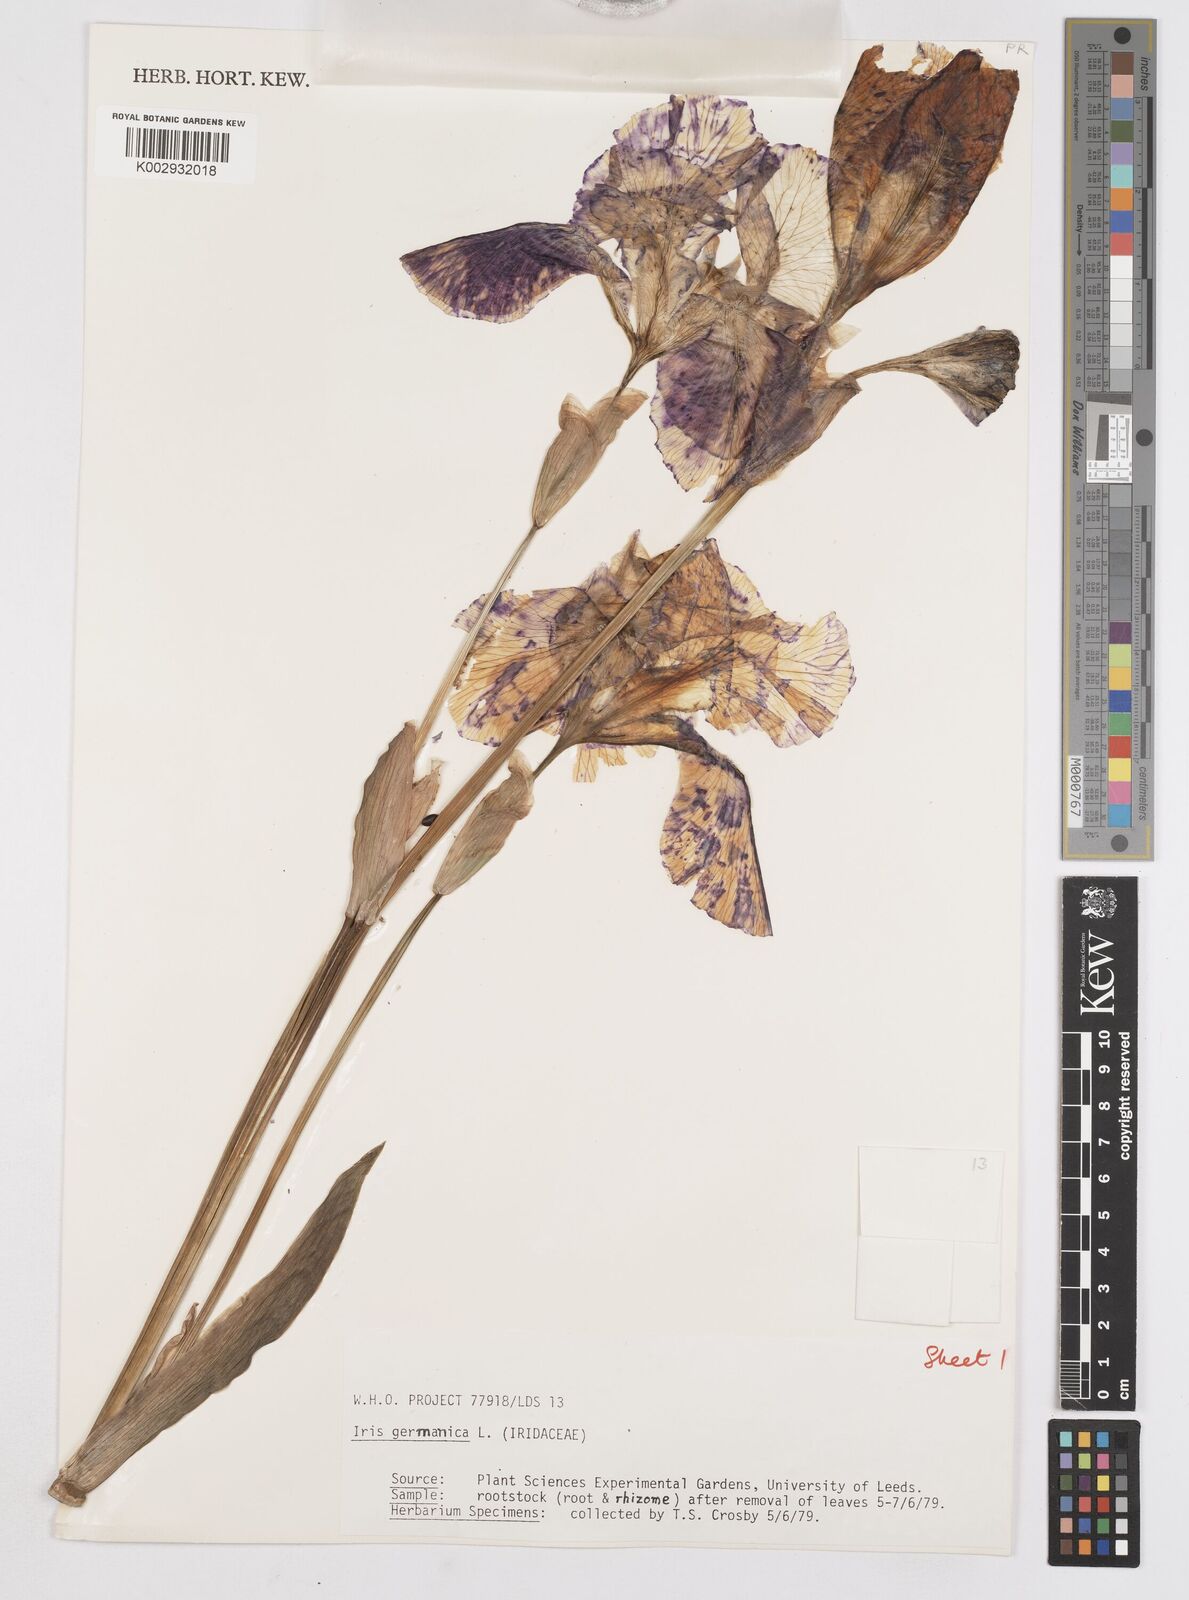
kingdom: Plantae
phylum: Tracheophyta
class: Liliopsida
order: Asparagales
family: Iridaceae
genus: Iris
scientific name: Iris germanica
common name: German iris
